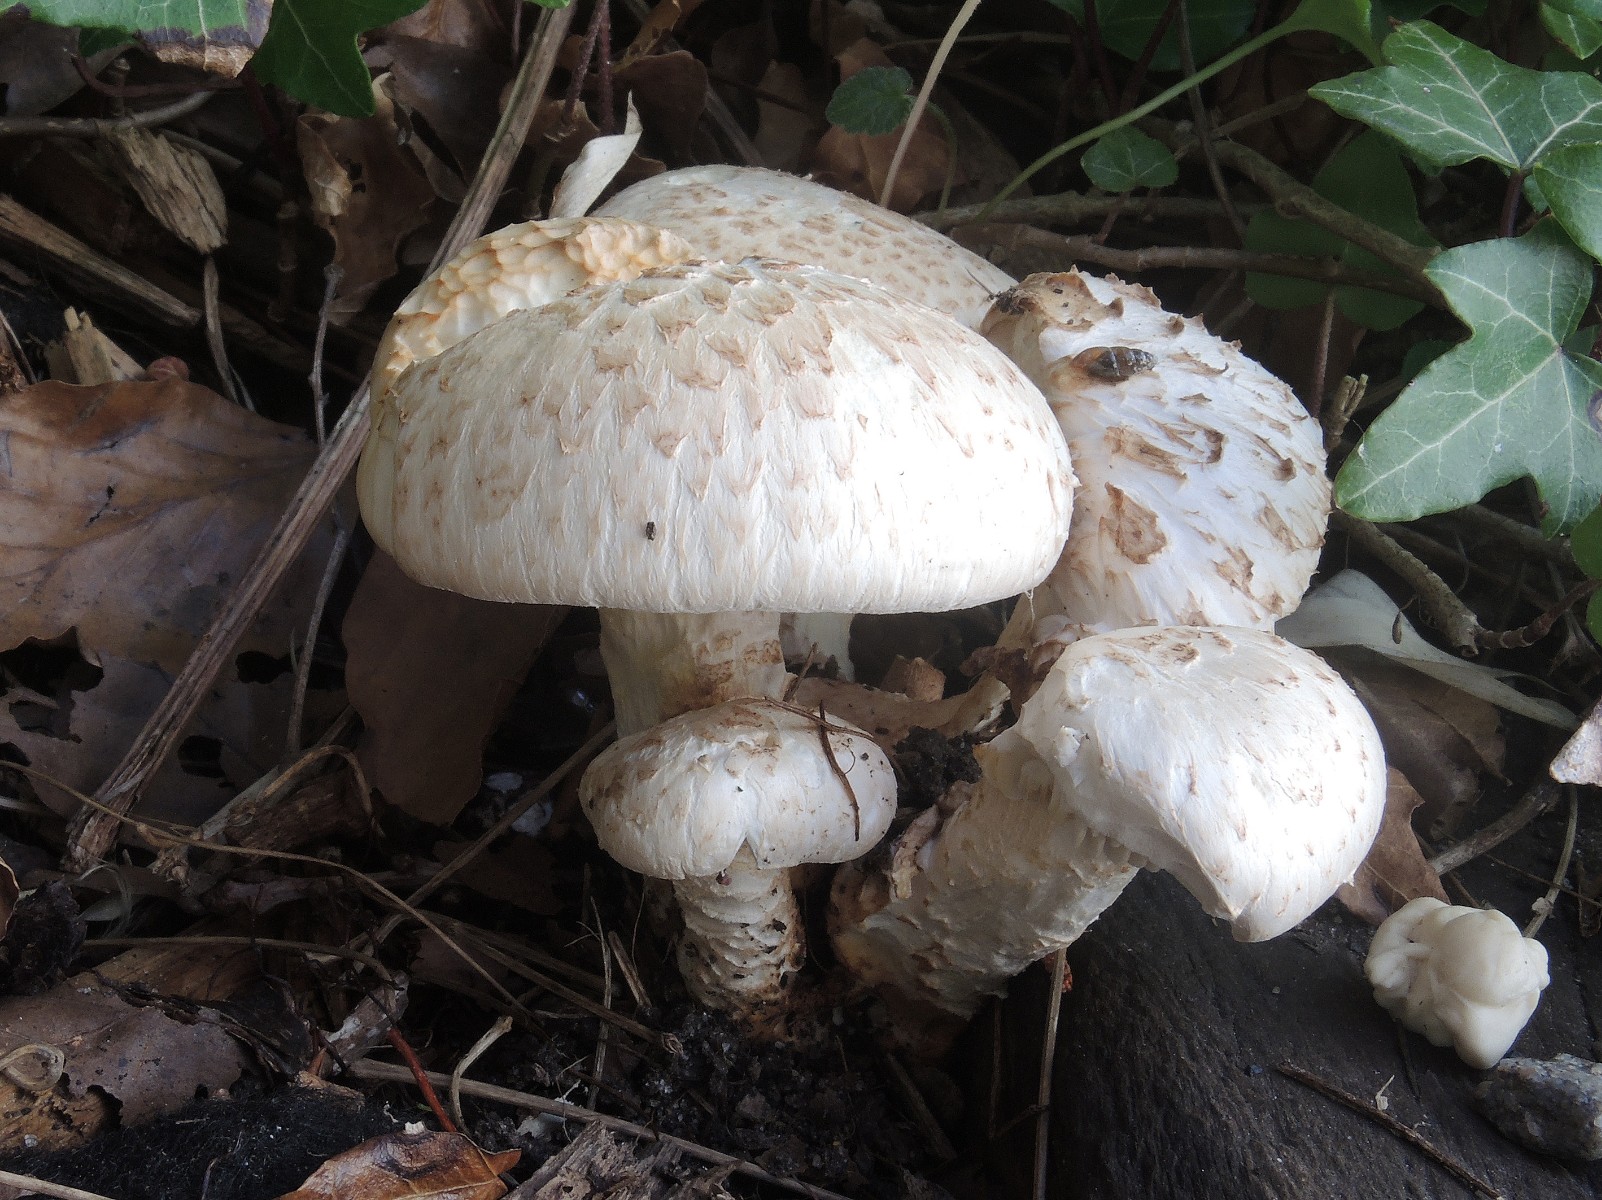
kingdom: Fungi
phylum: Basidiomycota
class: Agaricomycetes
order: Gloeophyllales
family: Gloeophyllaceae
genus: Neolentinus
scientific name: Neolentinus lepideus
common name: skællet sejhat
